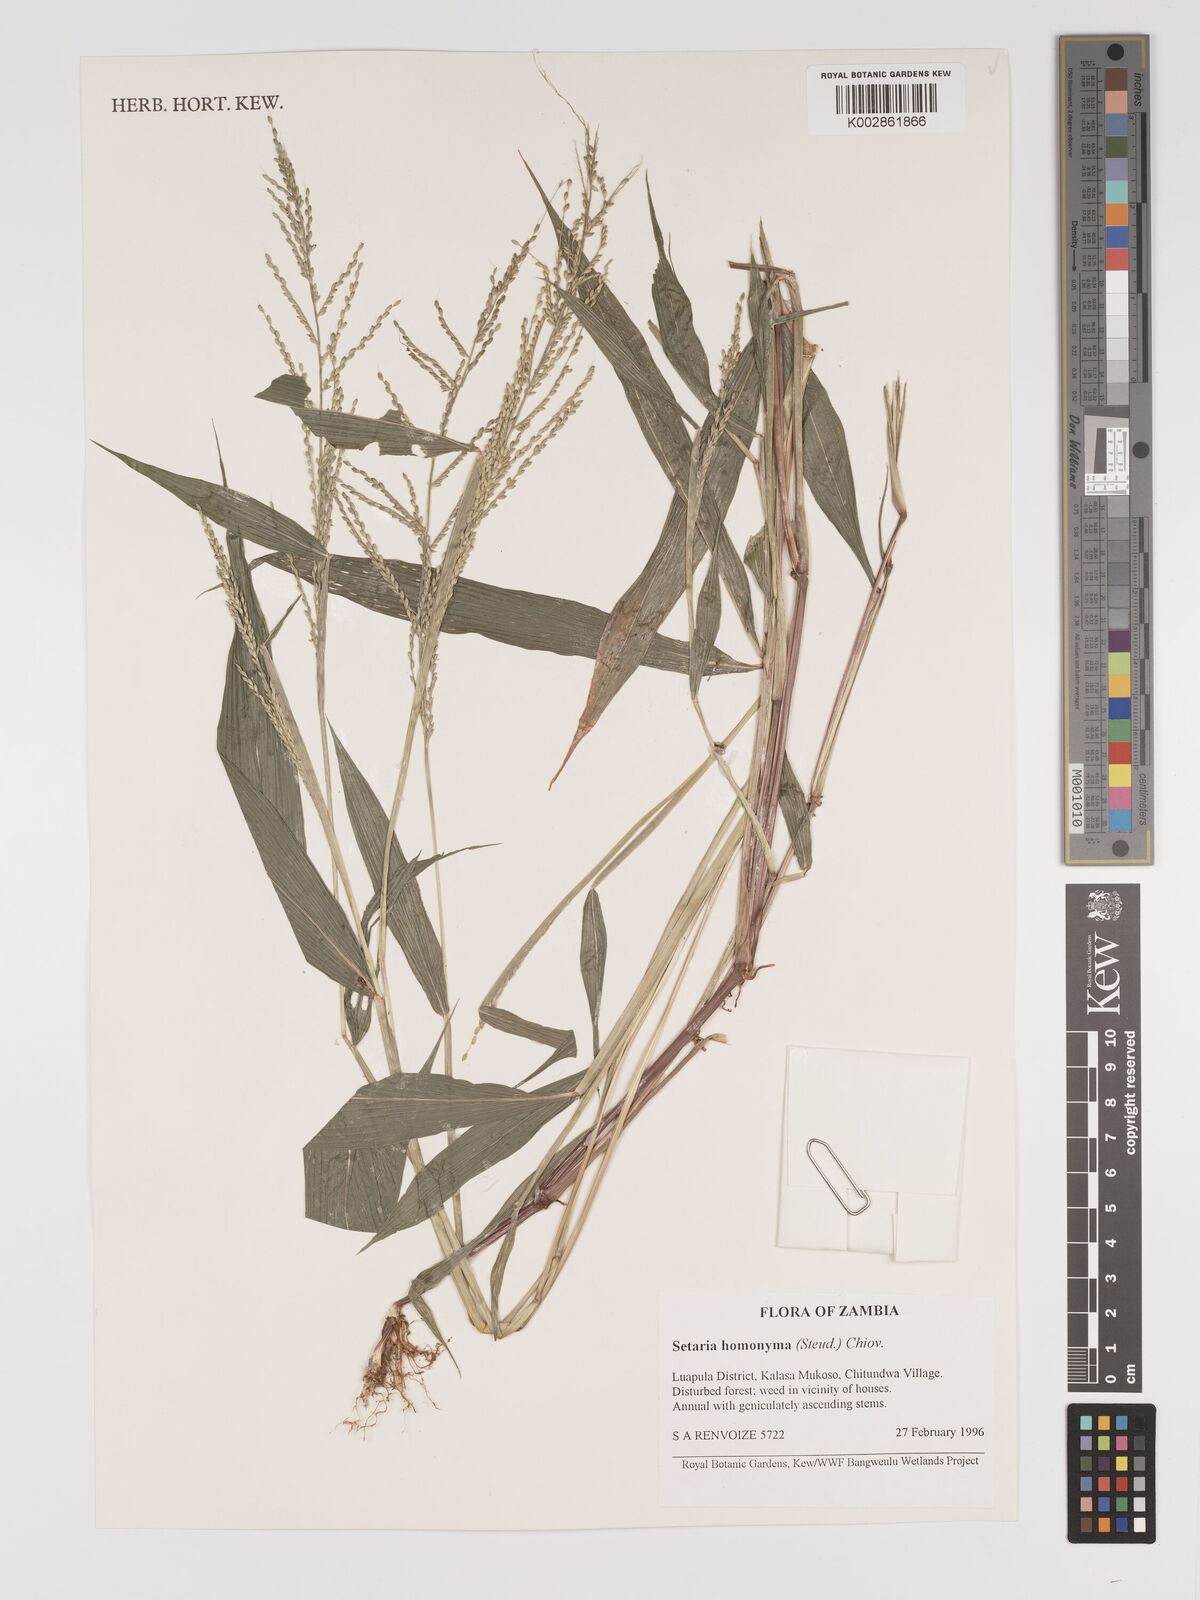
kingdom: Plantae
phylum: Tracheophyta
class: Liliopsida
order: Poales
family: Poaceae
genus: Setaria
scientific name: Setaria homonyma
